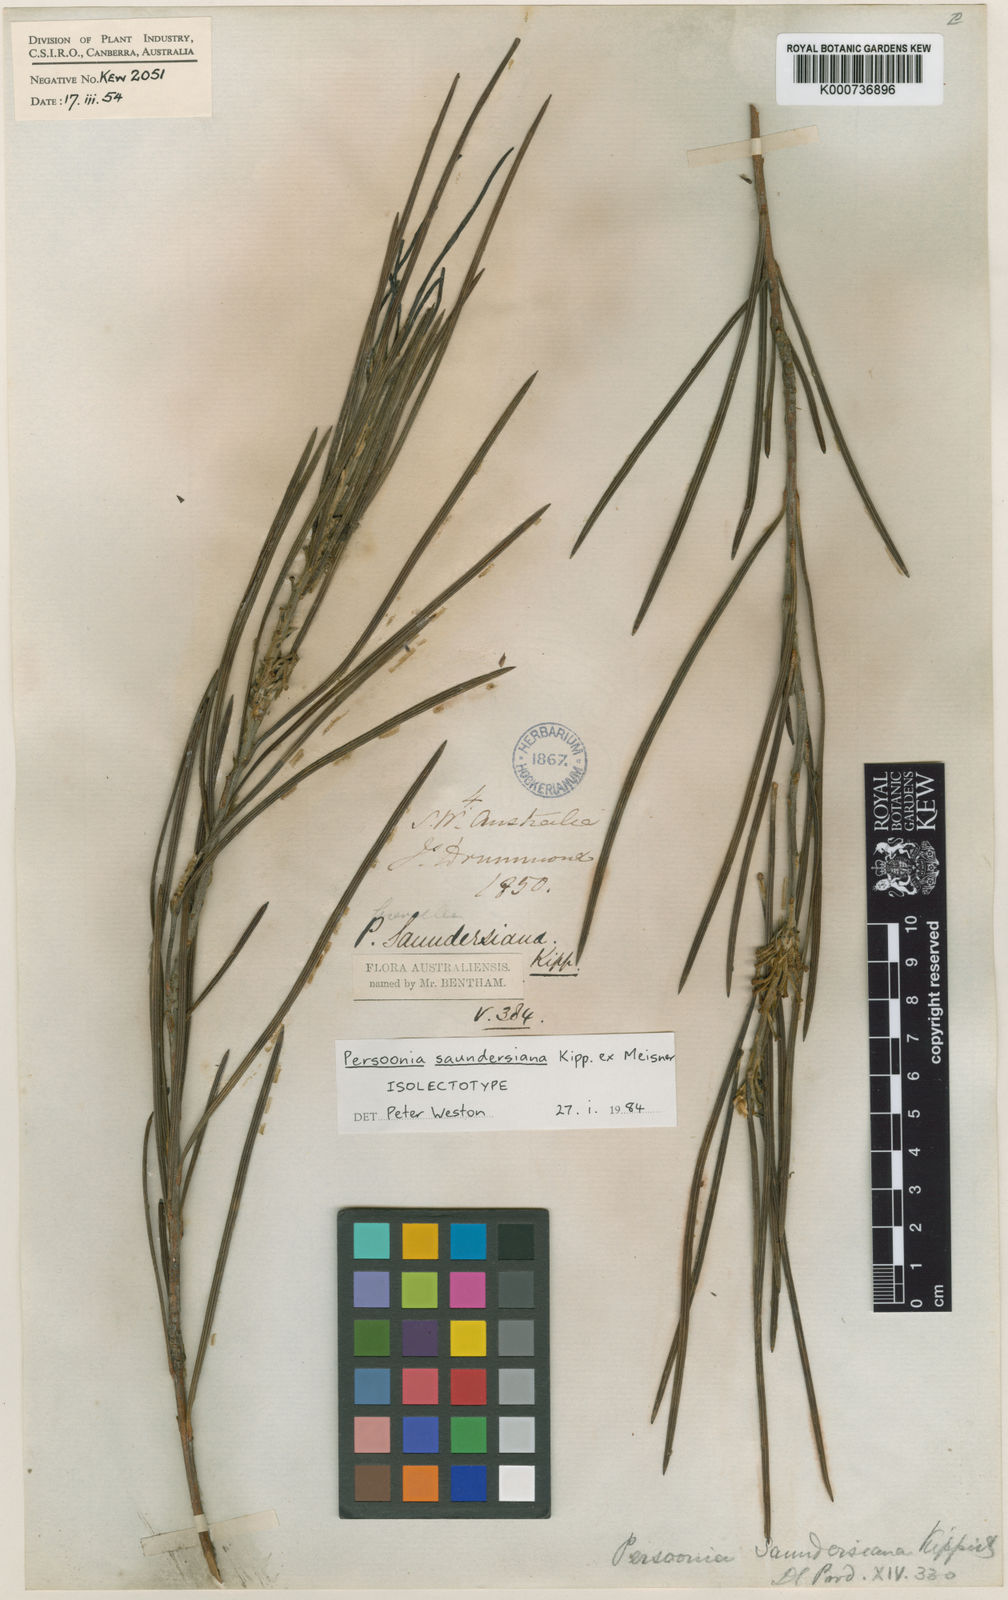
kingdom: Plantae
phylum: Tracheophyta
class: Magnoliopsida
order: Proteales
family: Proteaceae
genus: Persoonia
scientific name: Persoonia saundersiana
